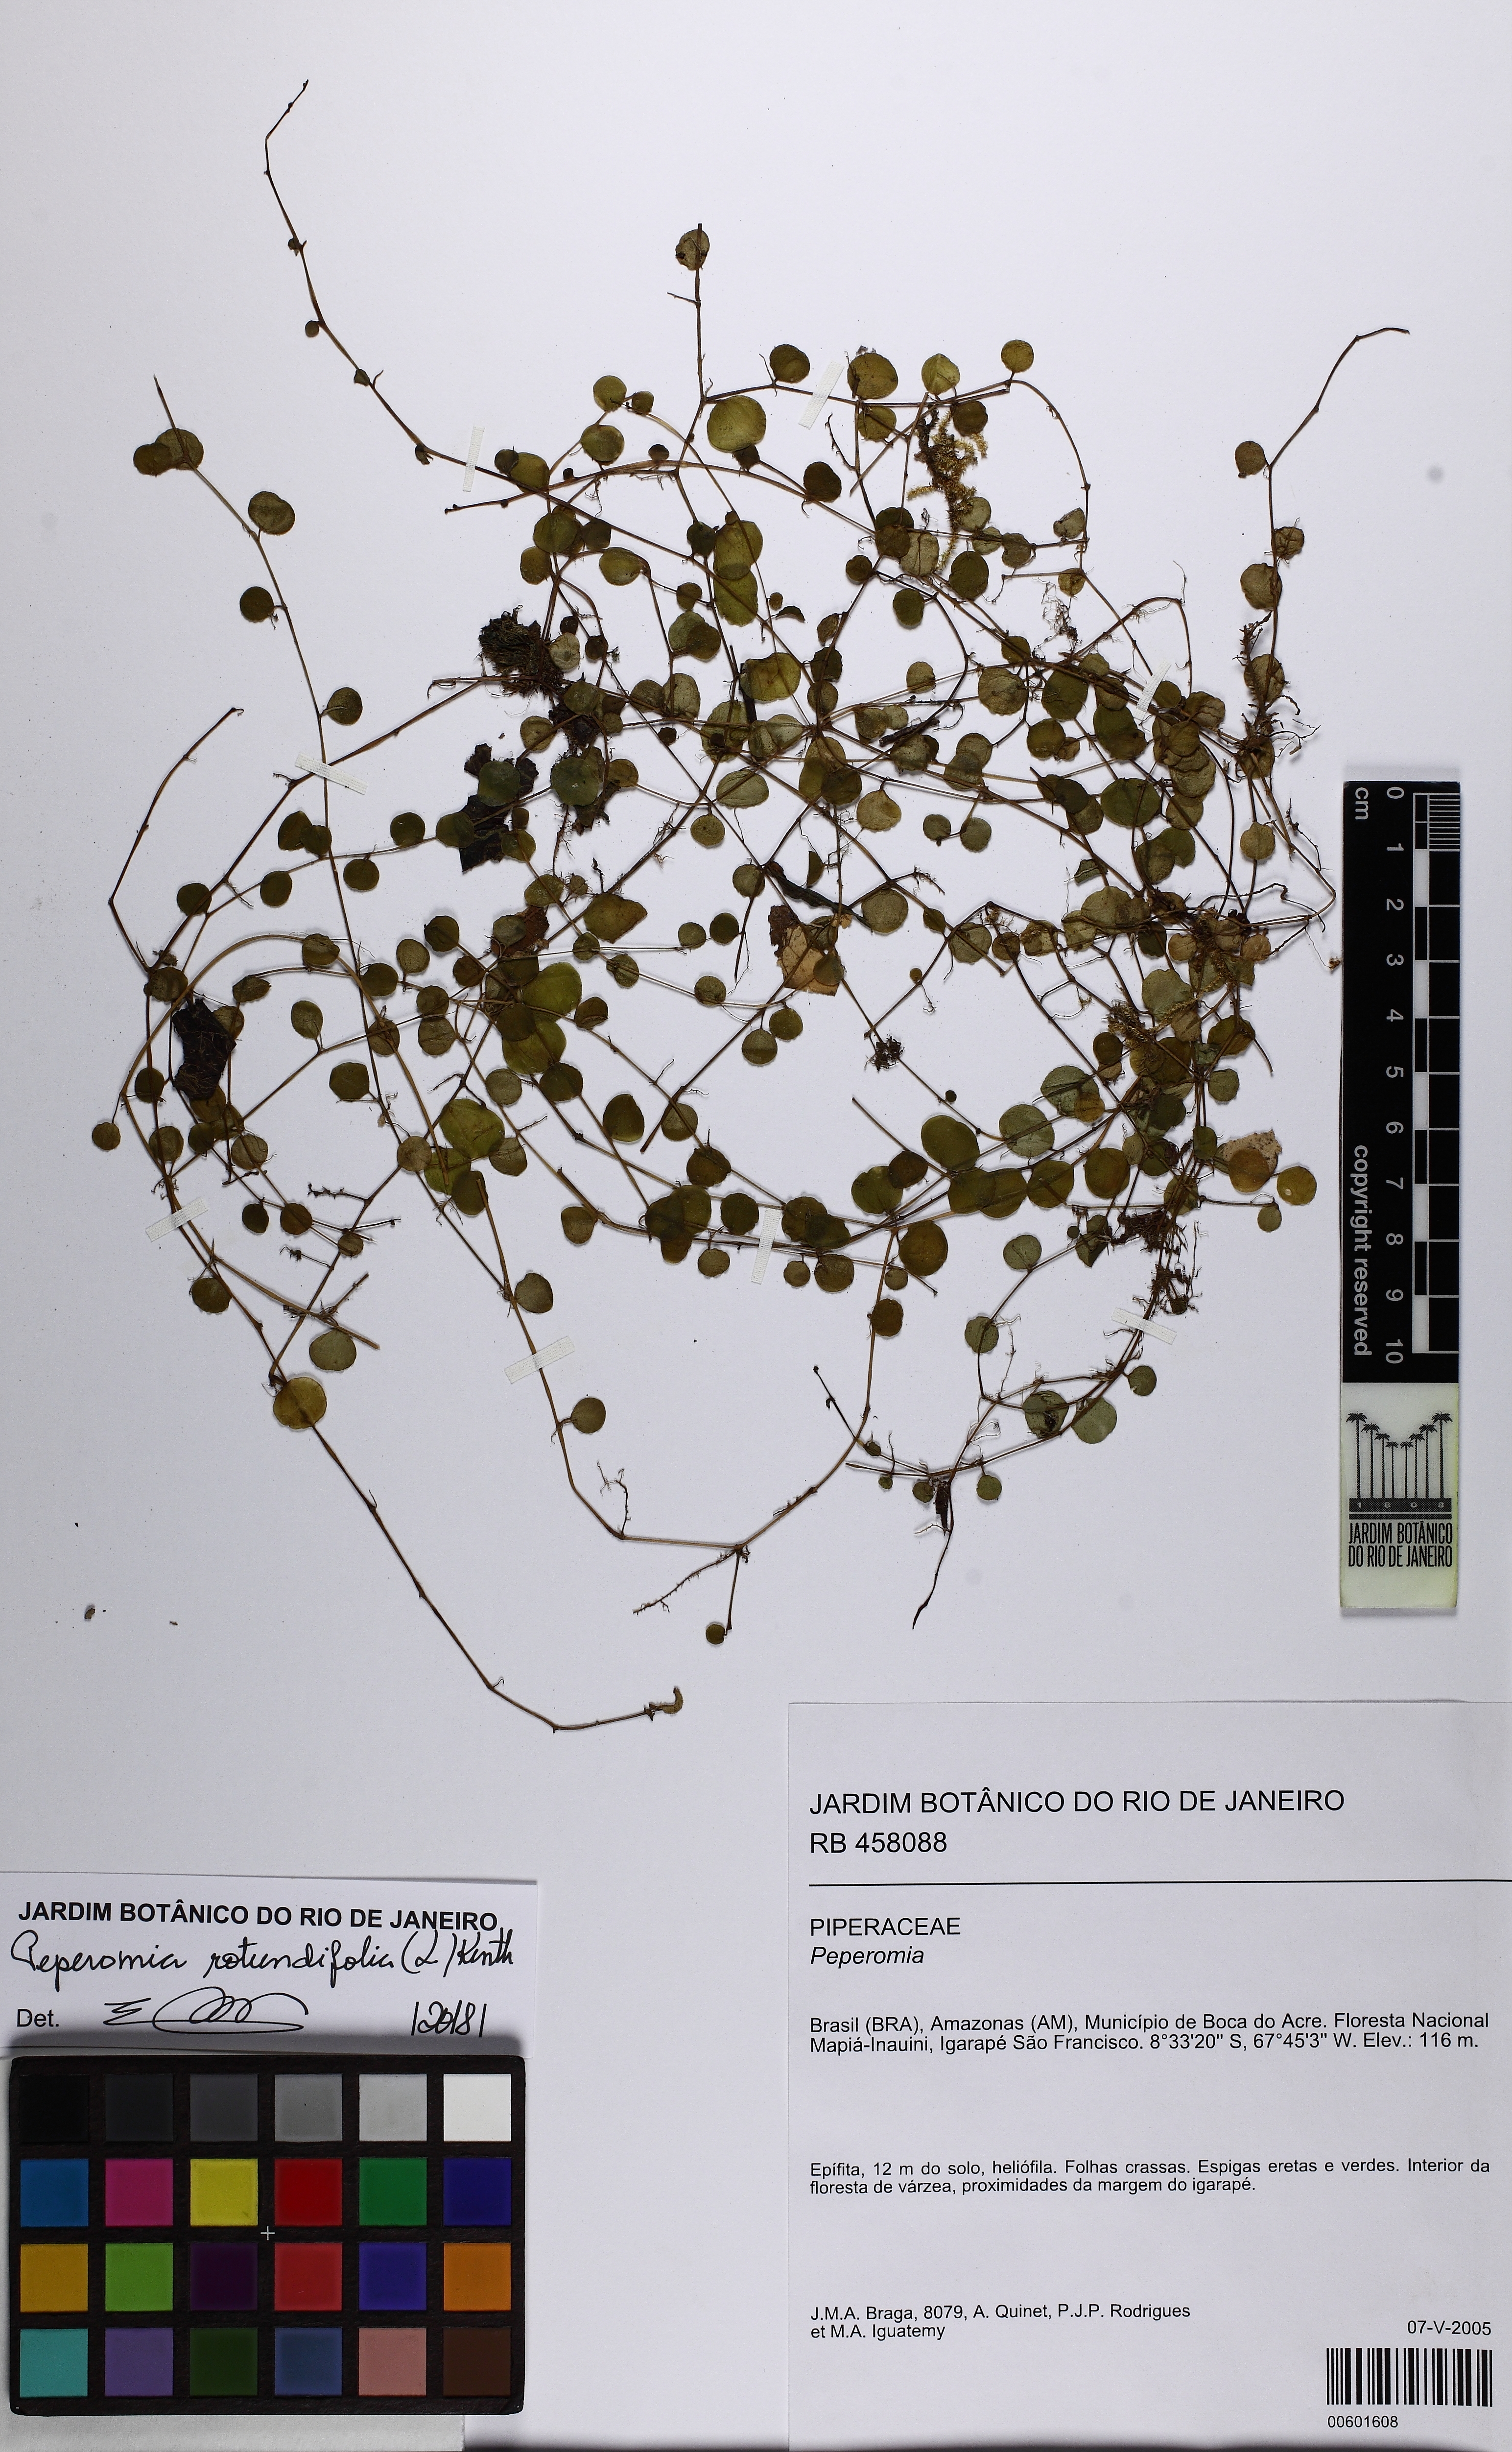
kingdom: Plantae
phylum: Tracheophyta
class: Magnoliopsida
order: Piperales
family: Piperaceae
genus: Peperomia
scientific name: Peperomia rotundifolia
